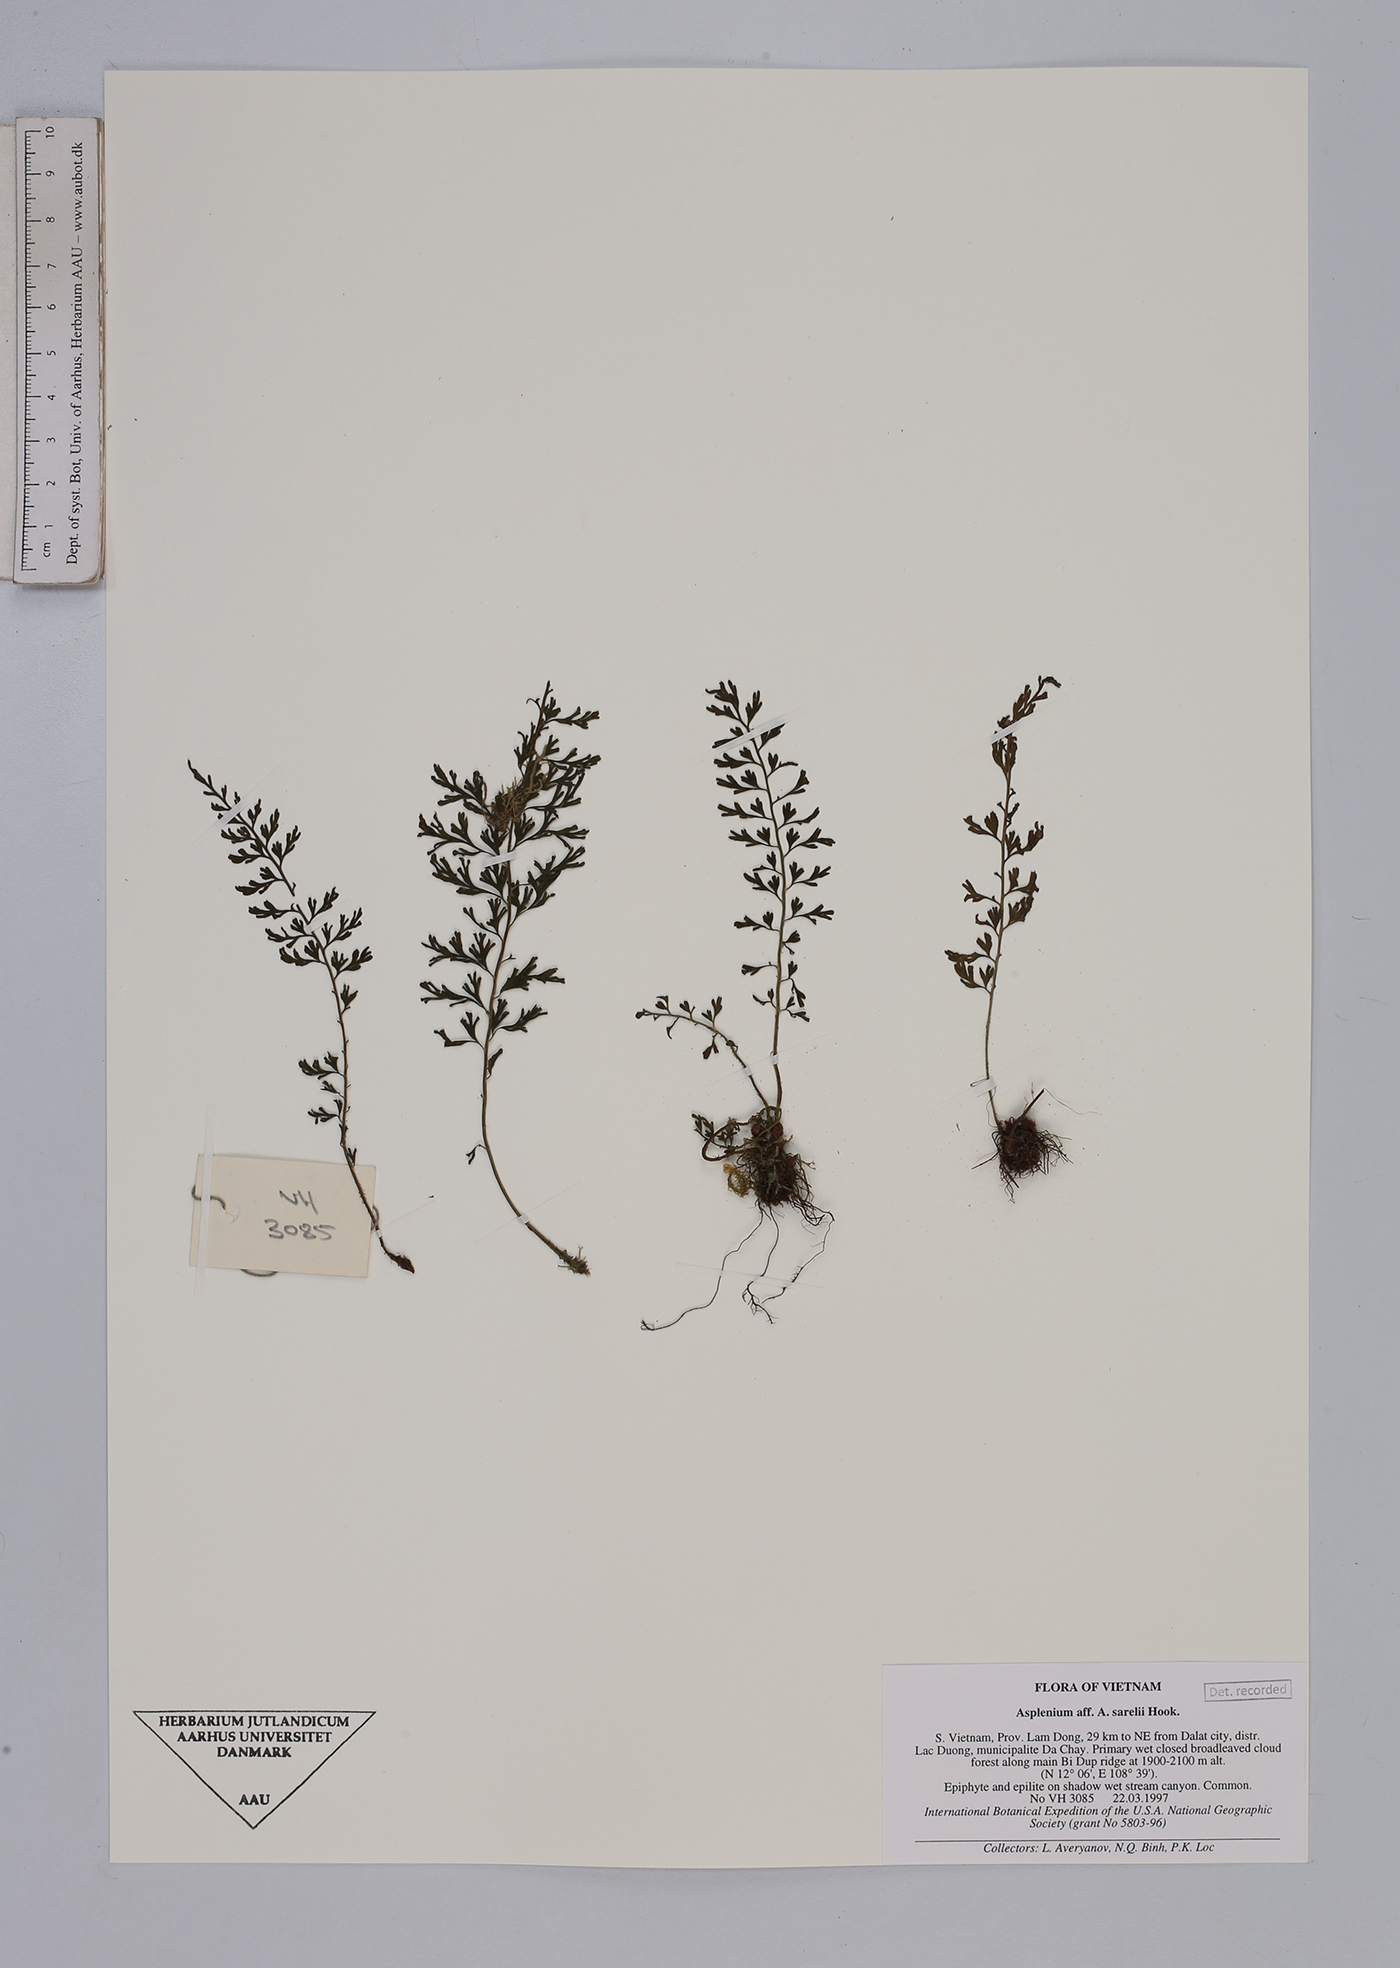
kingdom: Plantae
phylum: Tracheophyta
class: Polypodiopsida
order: Polypodiales
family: Aspleniaceae
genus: Asplenium
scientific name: Asplenium sarelii
